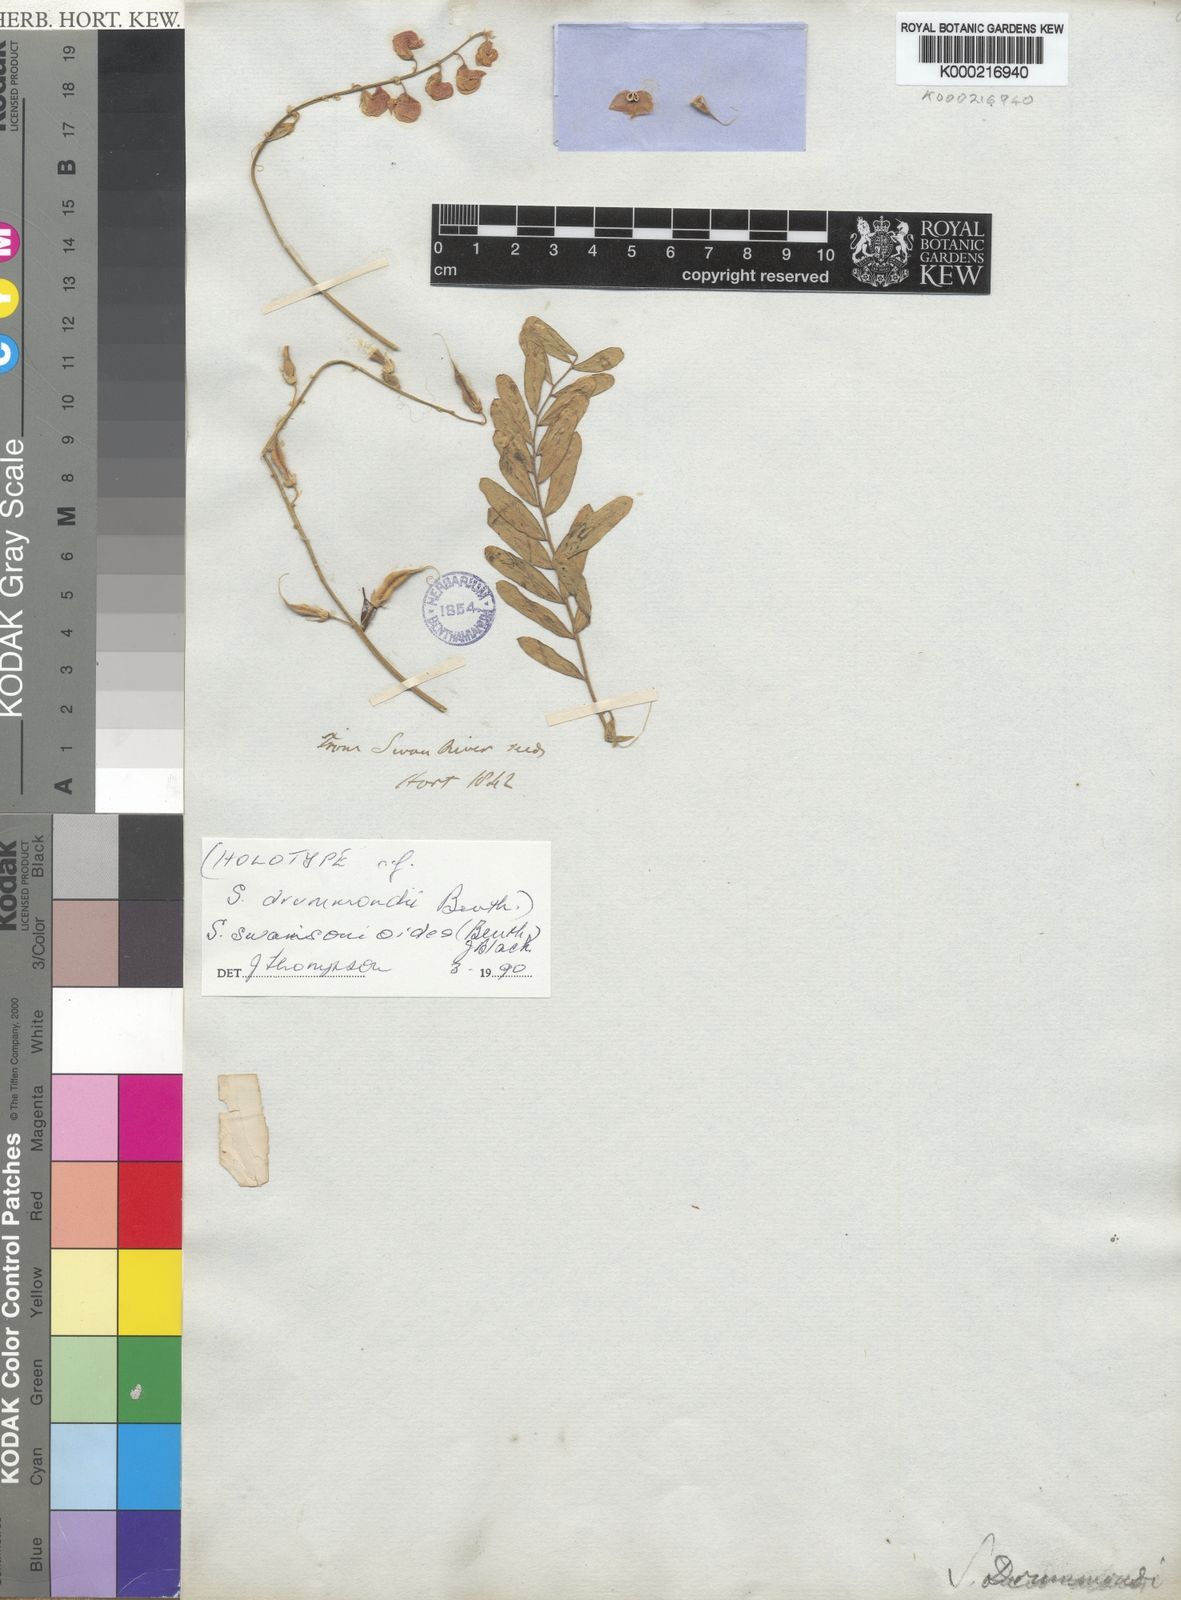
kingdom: Plantae
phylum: Tracheophyta
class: Magnoliopsida
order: Fabales
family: Fabaceae
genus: Swainsona
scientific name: Swainsona swainsonioides
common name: Downy swainsona
